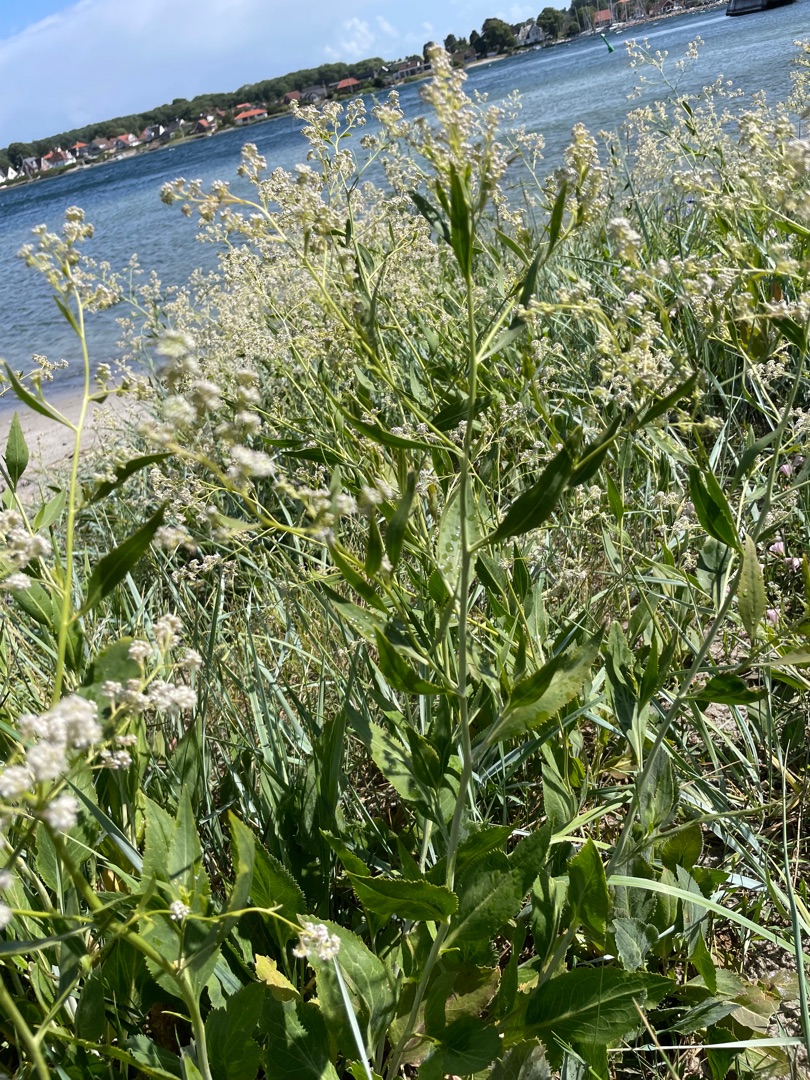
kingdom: Plantae
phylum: Tracheophyta
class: Magnoliopsida
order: Brassicales
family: Brassicaceae
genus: Lepidium
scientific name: Lepidium latifolium
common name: Strand-karse
